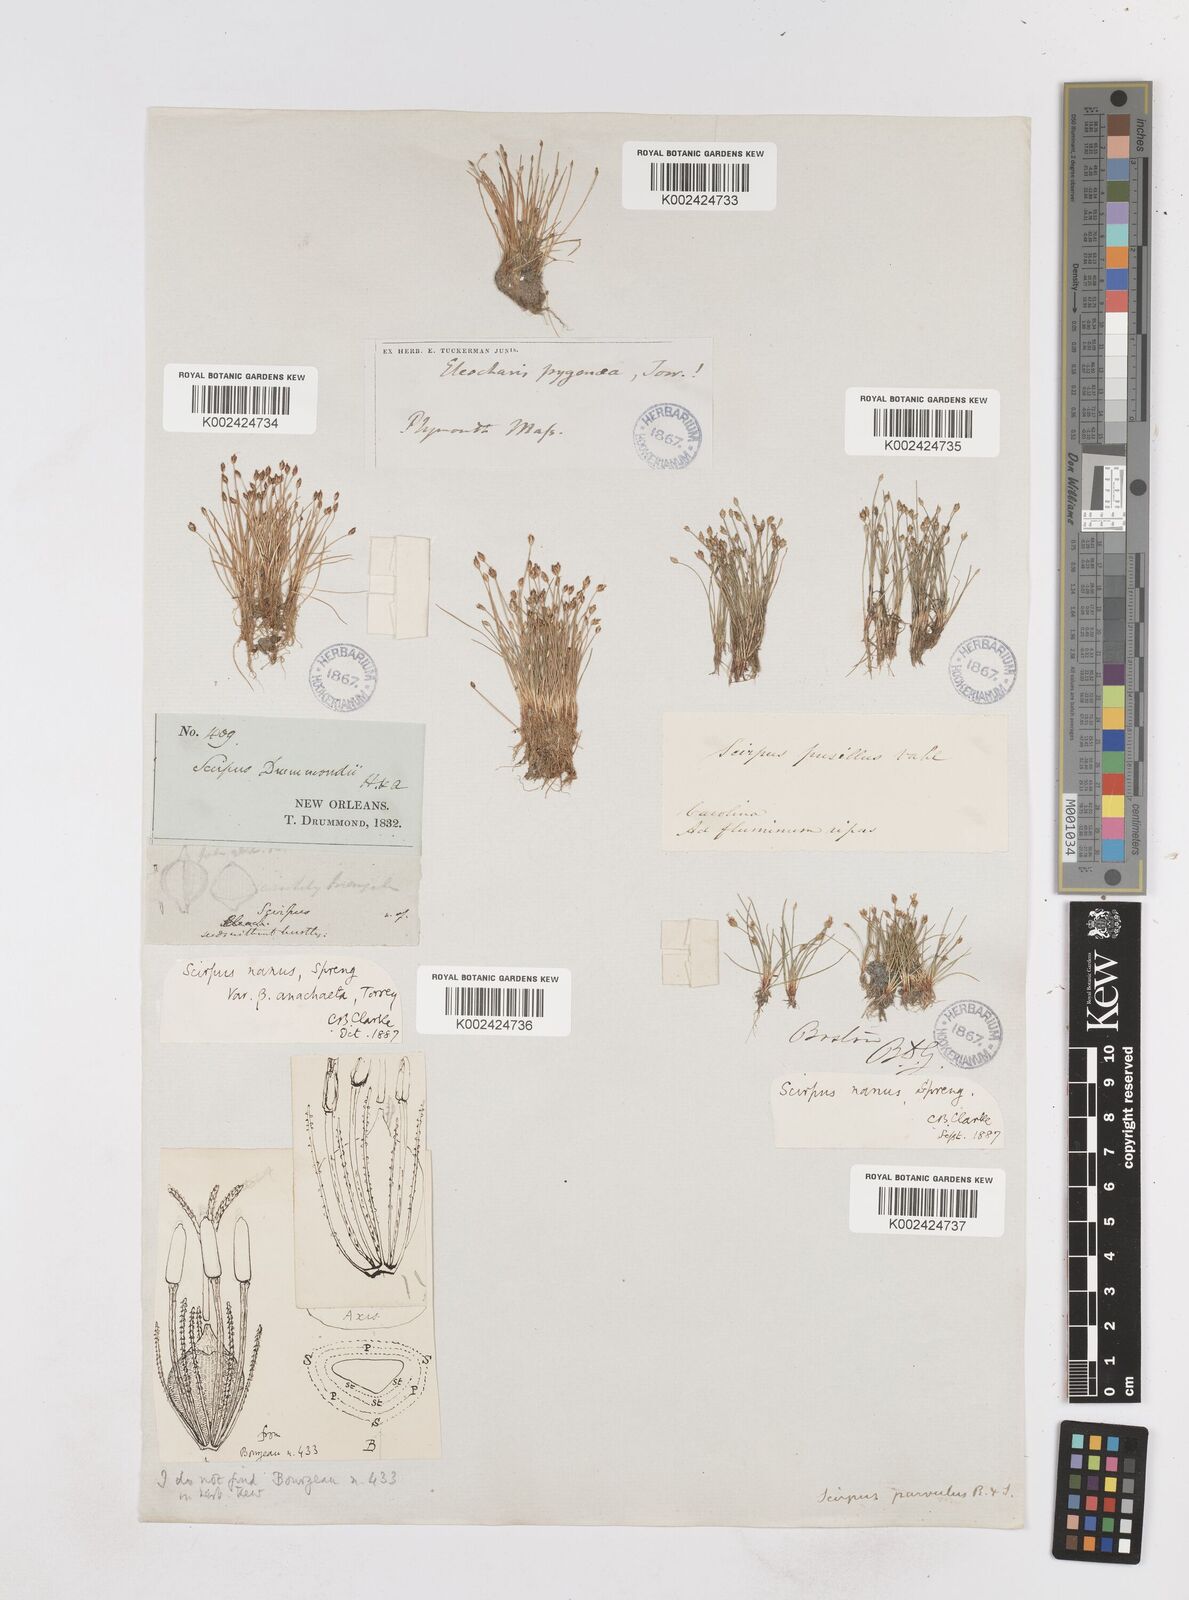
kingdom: Plantae
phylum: Tracheophyta
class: Liliopsida
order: Poales
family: Cyperaceae
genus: Eleocharis
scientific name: Eleocharis parvula
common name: Dwarf spike-rush
